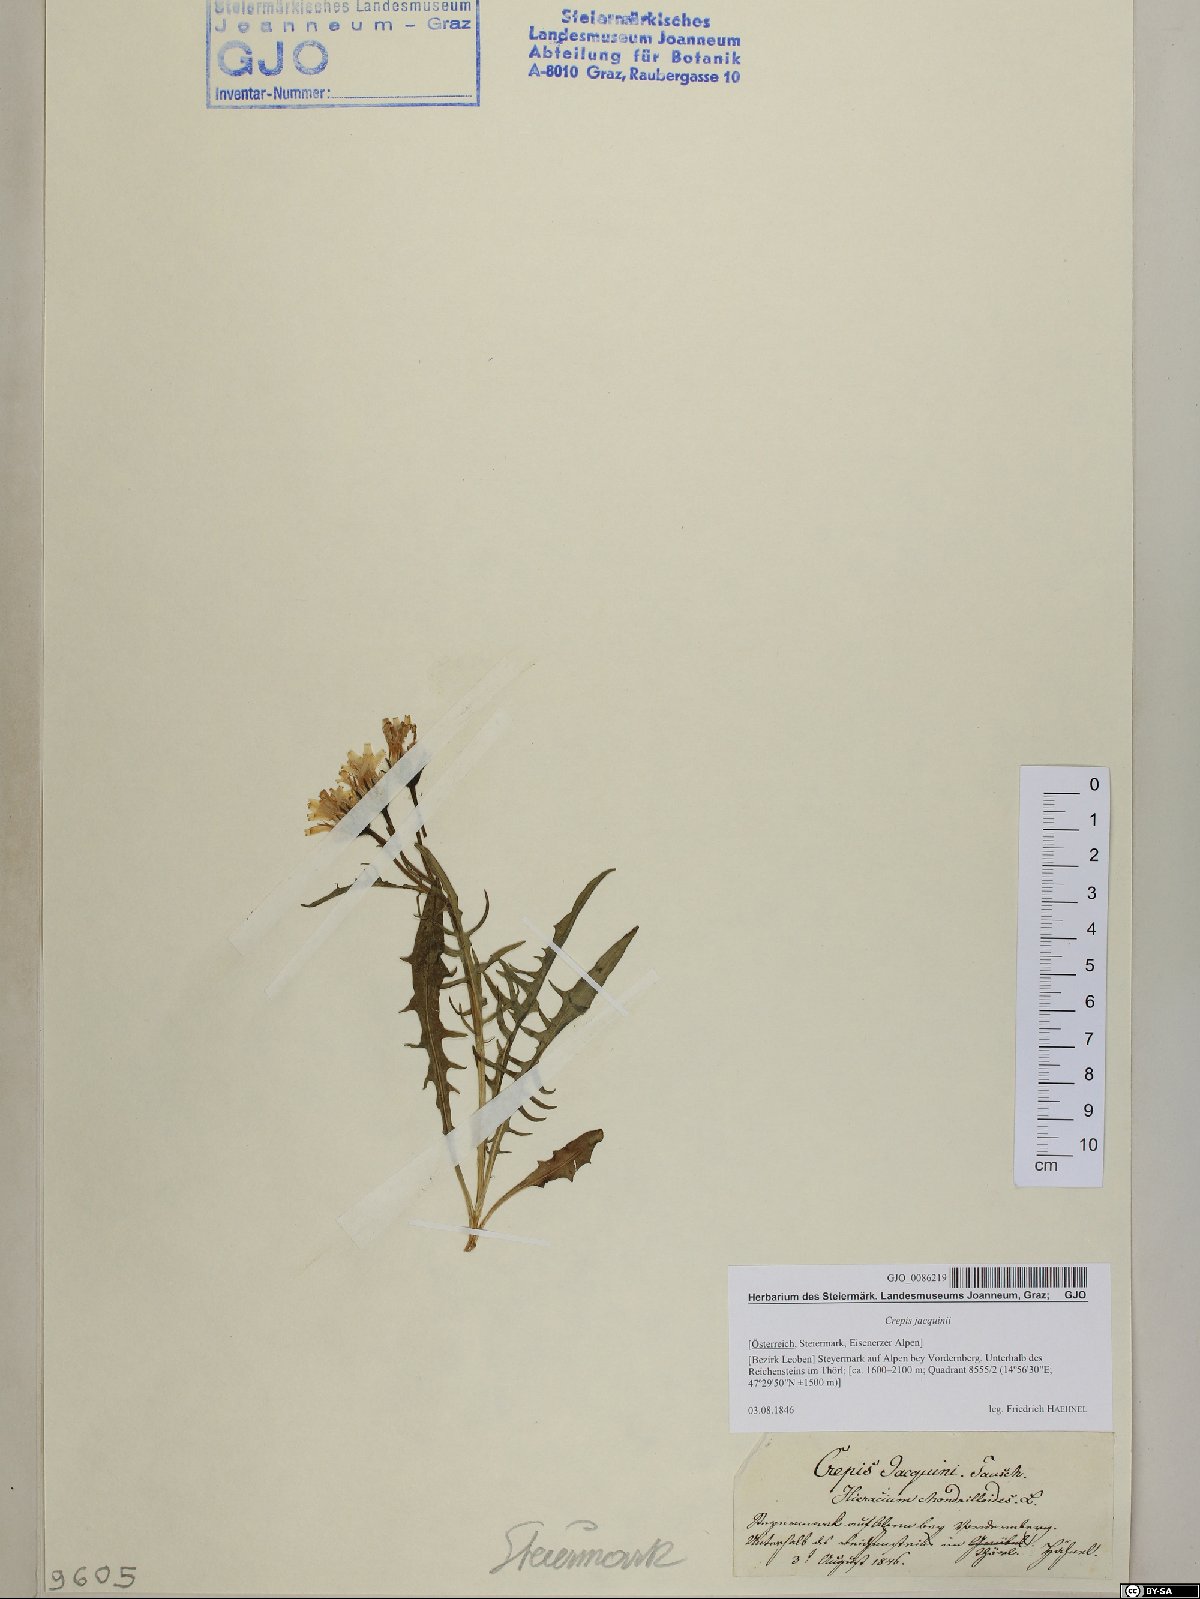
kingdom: Plantae
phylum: Tracheophyta
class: Magnoliopsida
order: Asterales
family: Asteraceae
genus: Crepis
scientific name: Crepis jacquinii
